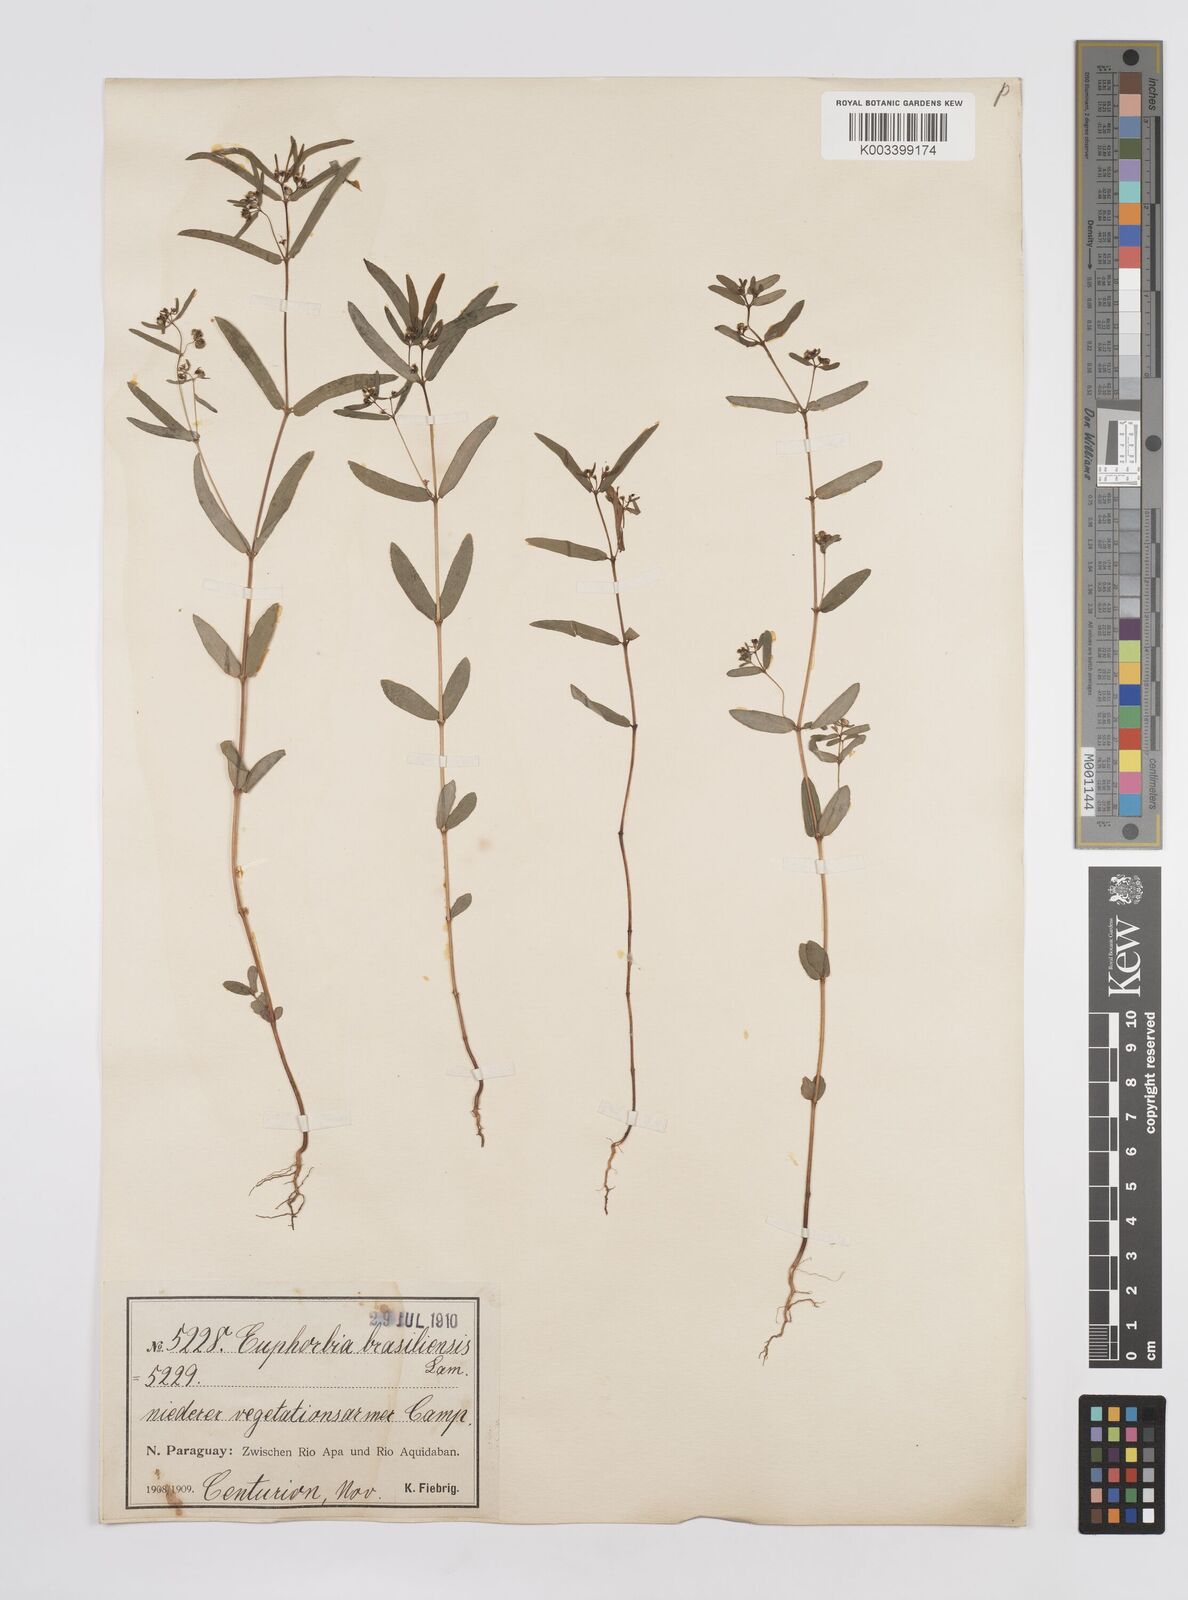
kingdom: Plantae
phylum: Tracheophyta
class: Magnoliopsida
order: Malpighiales
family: Euphorbiaceae
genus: Euphorbia
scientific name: Euphorbia hyssopifolia
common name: Hyssopleaf sandmat
